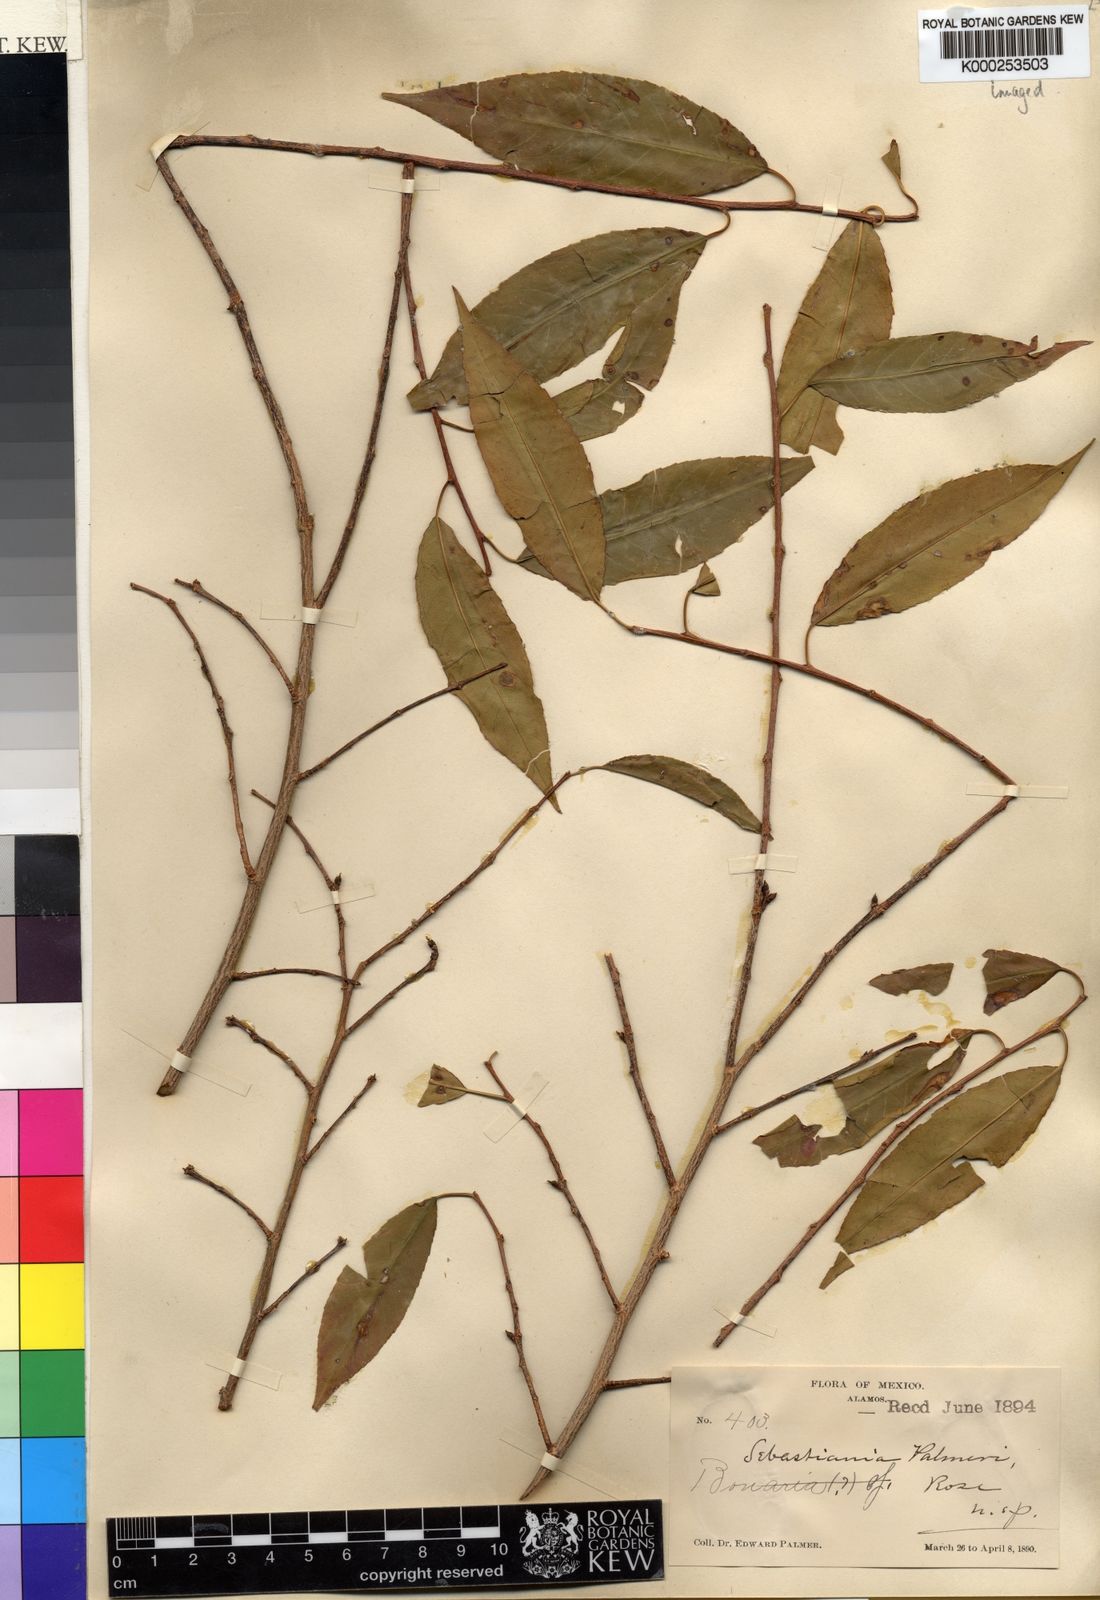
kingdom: Plantae
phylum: Tracheophyta
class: Magnoliopsida
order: Malpighiales
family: Euphorbiaceae
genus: Sebastiania
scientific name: Sebastiania
